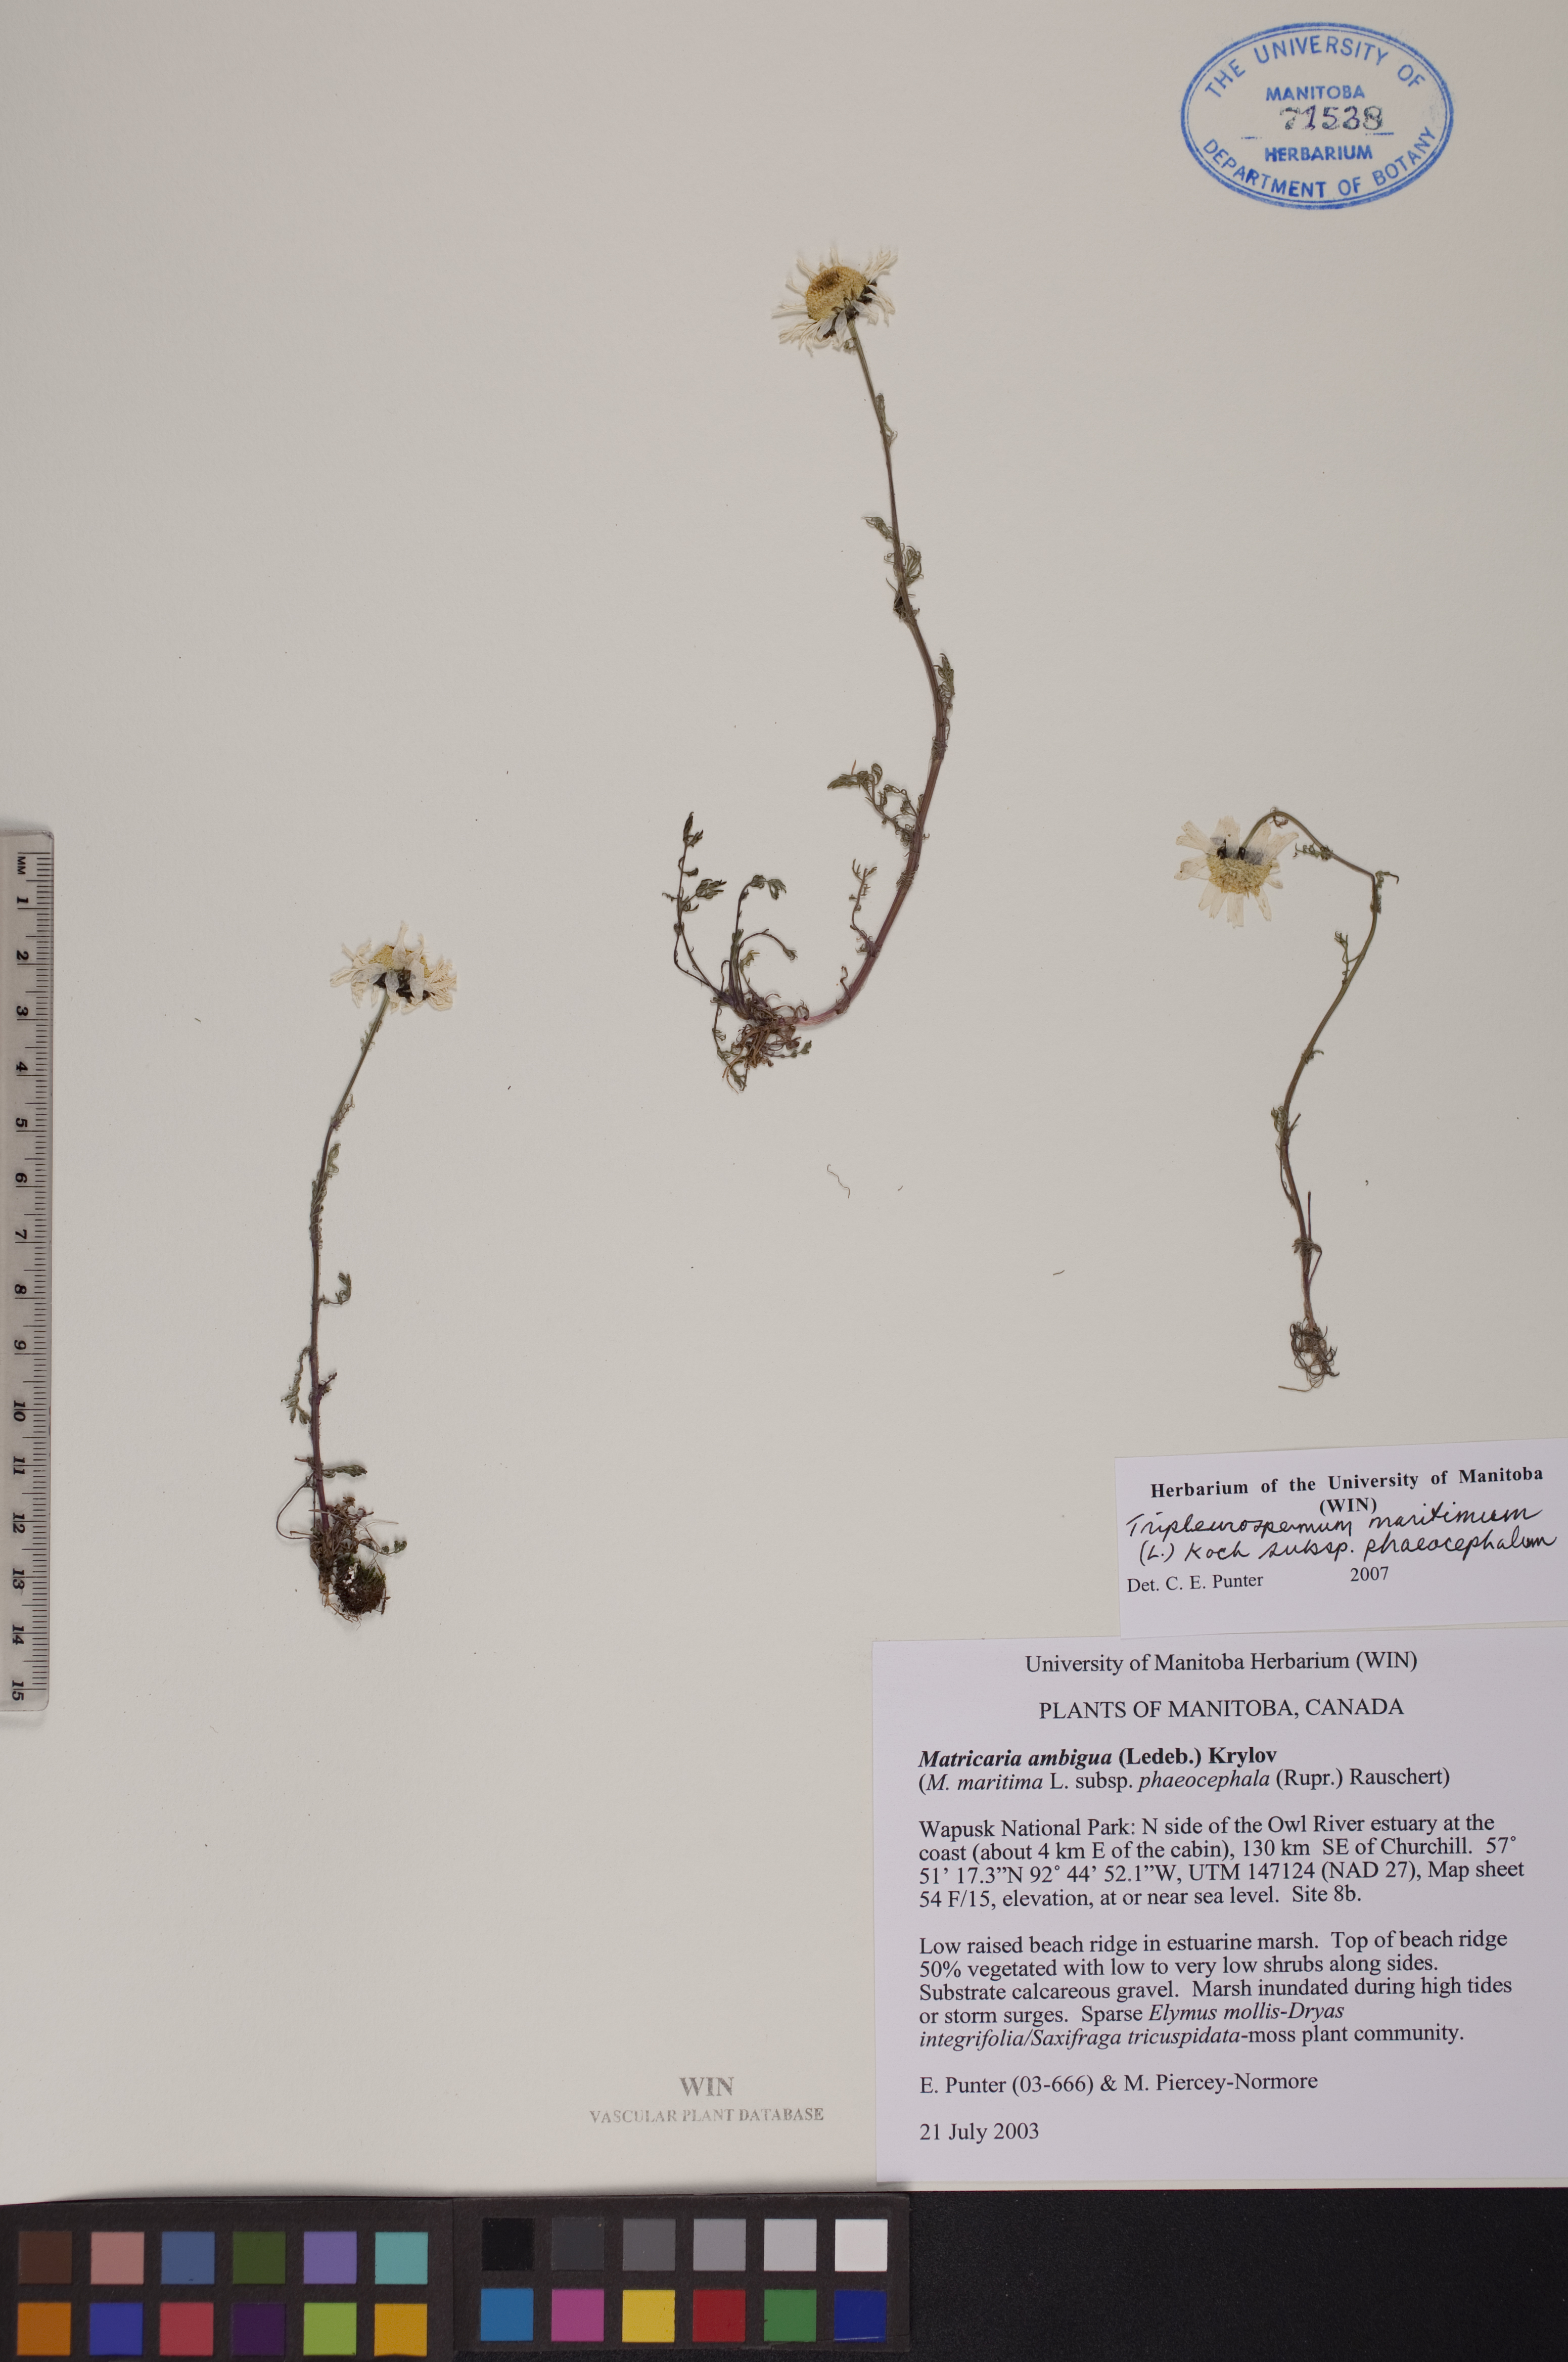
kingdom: Plantae
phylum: Tracheophyta
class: Magnoliopsida
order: Asterales
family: Asteraceae
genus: Tripleurospermum
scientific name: Tripleurospermum hookeri
